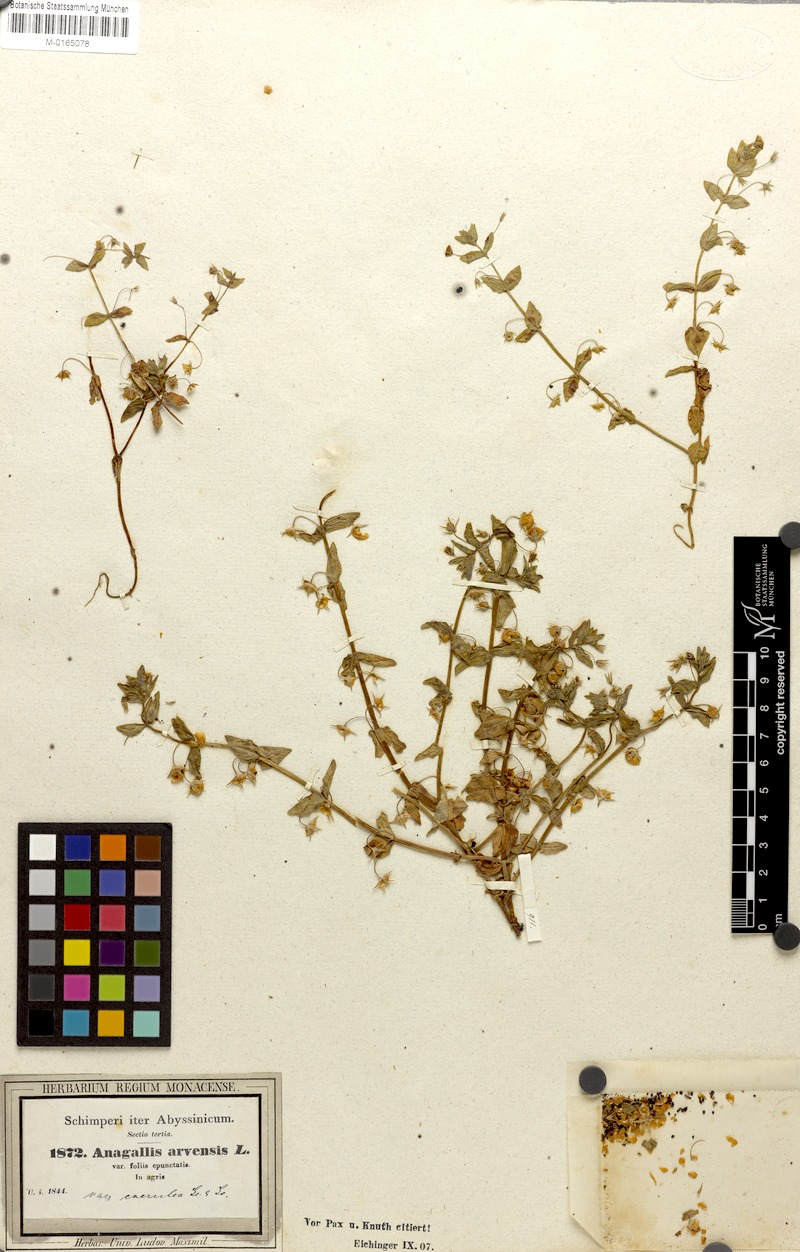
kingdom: Plantae
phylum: Tracheophyta
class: Magnoliopsida
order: Ericales
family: Primulaceae
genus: Lysimachia
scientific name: Lysimachia arvensis
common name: Scarlet pimpernel
